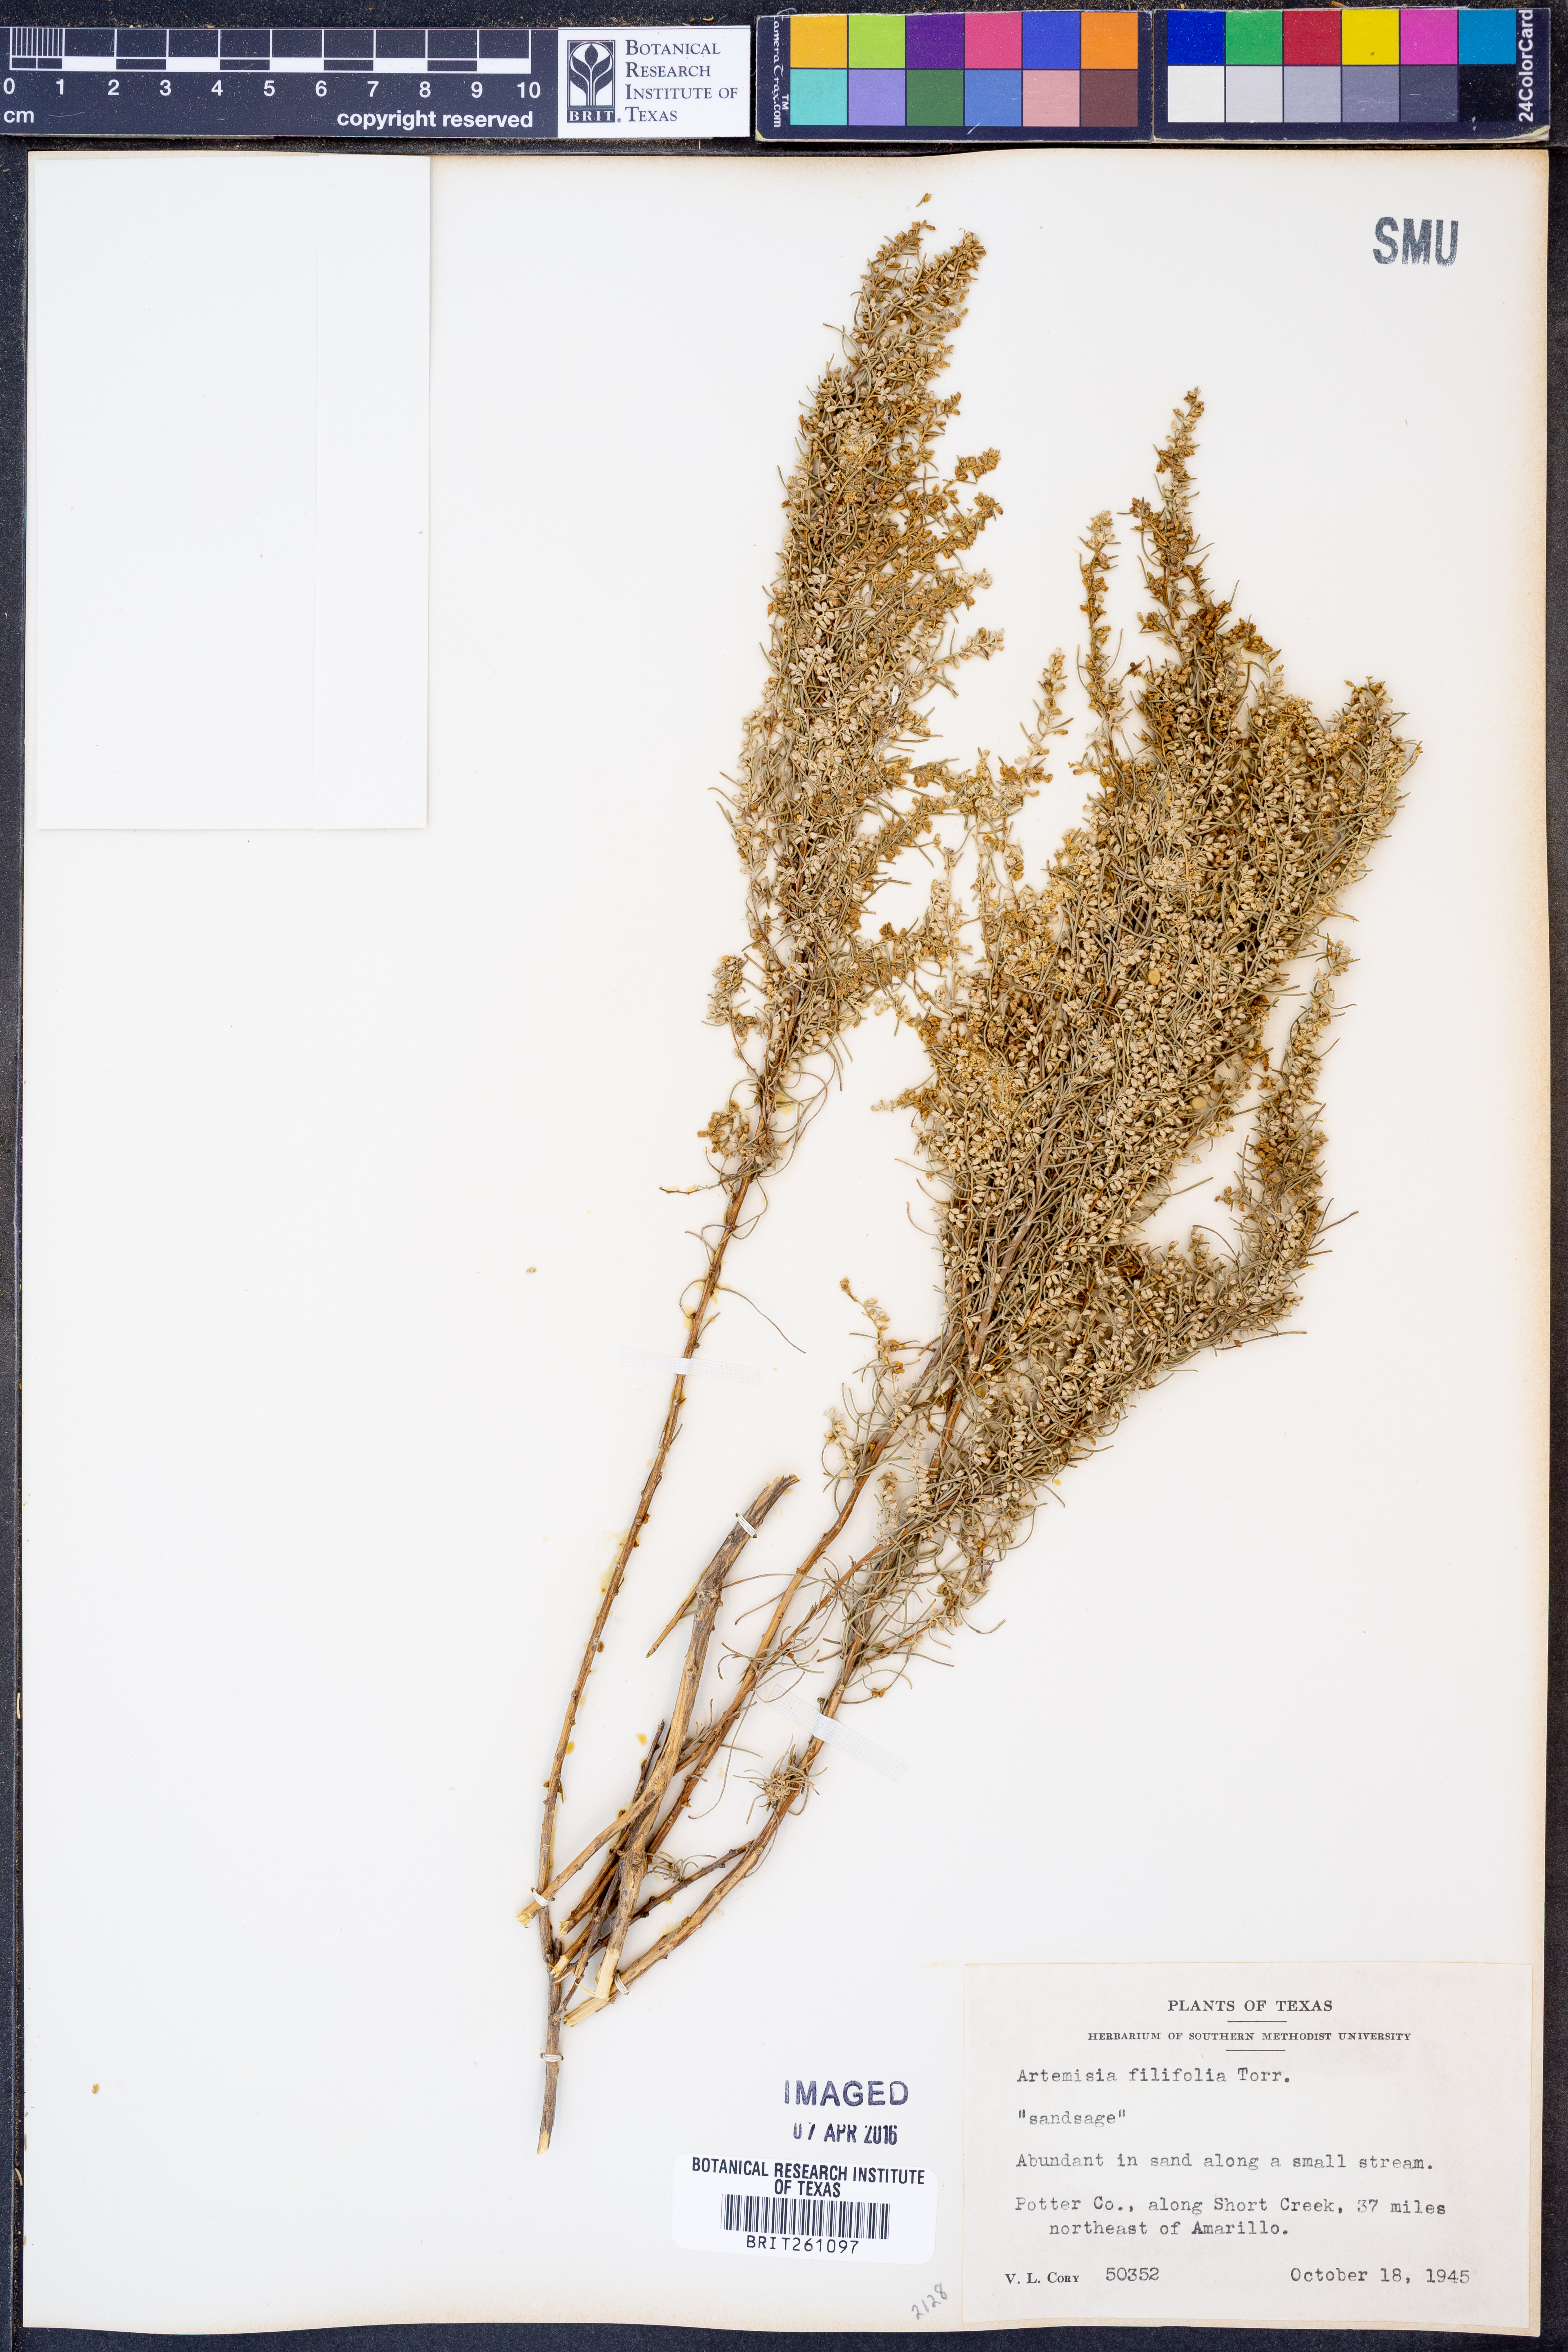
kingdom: Plantae
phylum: Tracheophyta
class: Magnoliopsida
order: Asterales
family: Asteraceae
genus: Artemisia
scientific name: Artemisia filifolia
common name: Sand-sage
